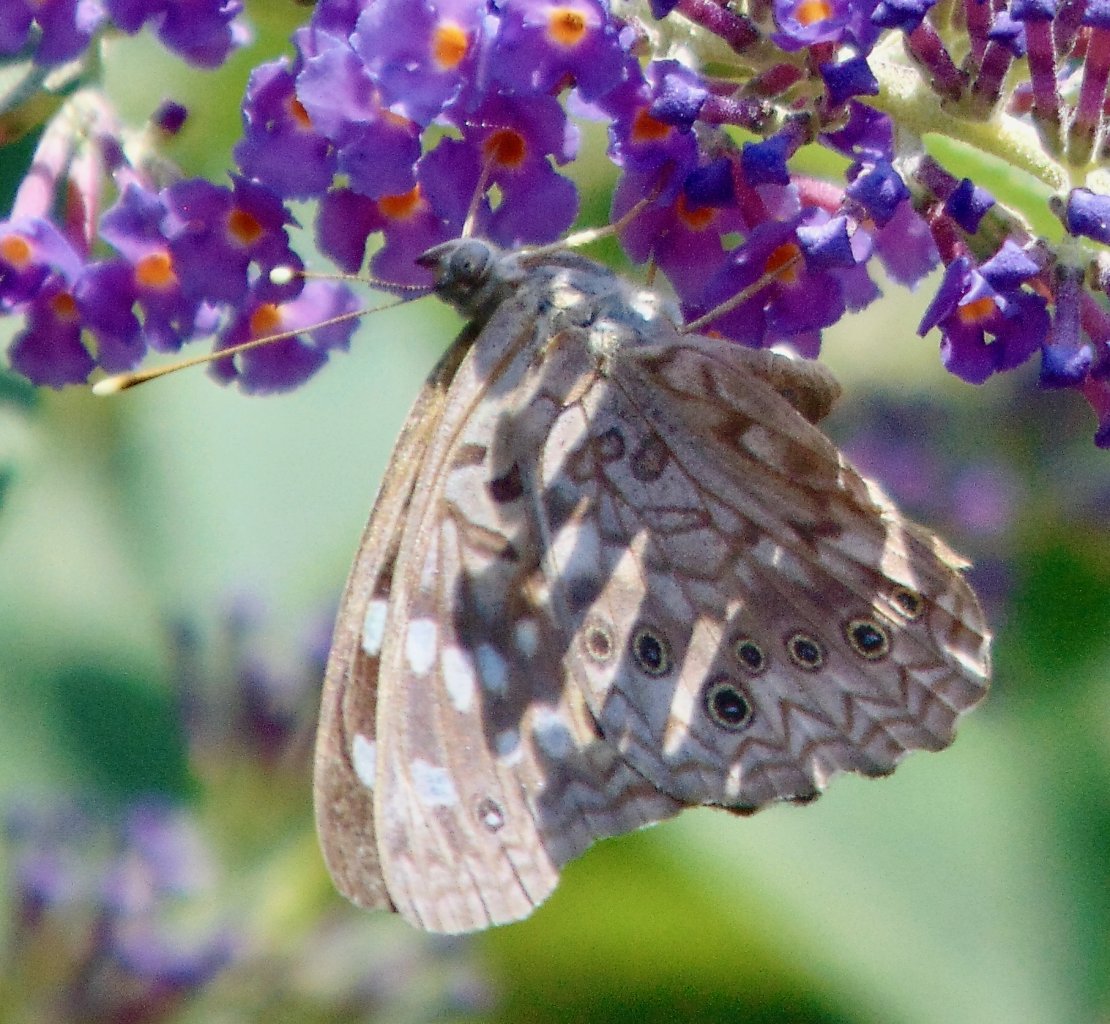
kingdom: Animalia
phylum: Arthropoda
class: Insecta
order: Lepidoptera
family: Nymphalidae
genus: Asterocampa
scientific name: Asterocampa celtis
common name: Hackberry Emperor
